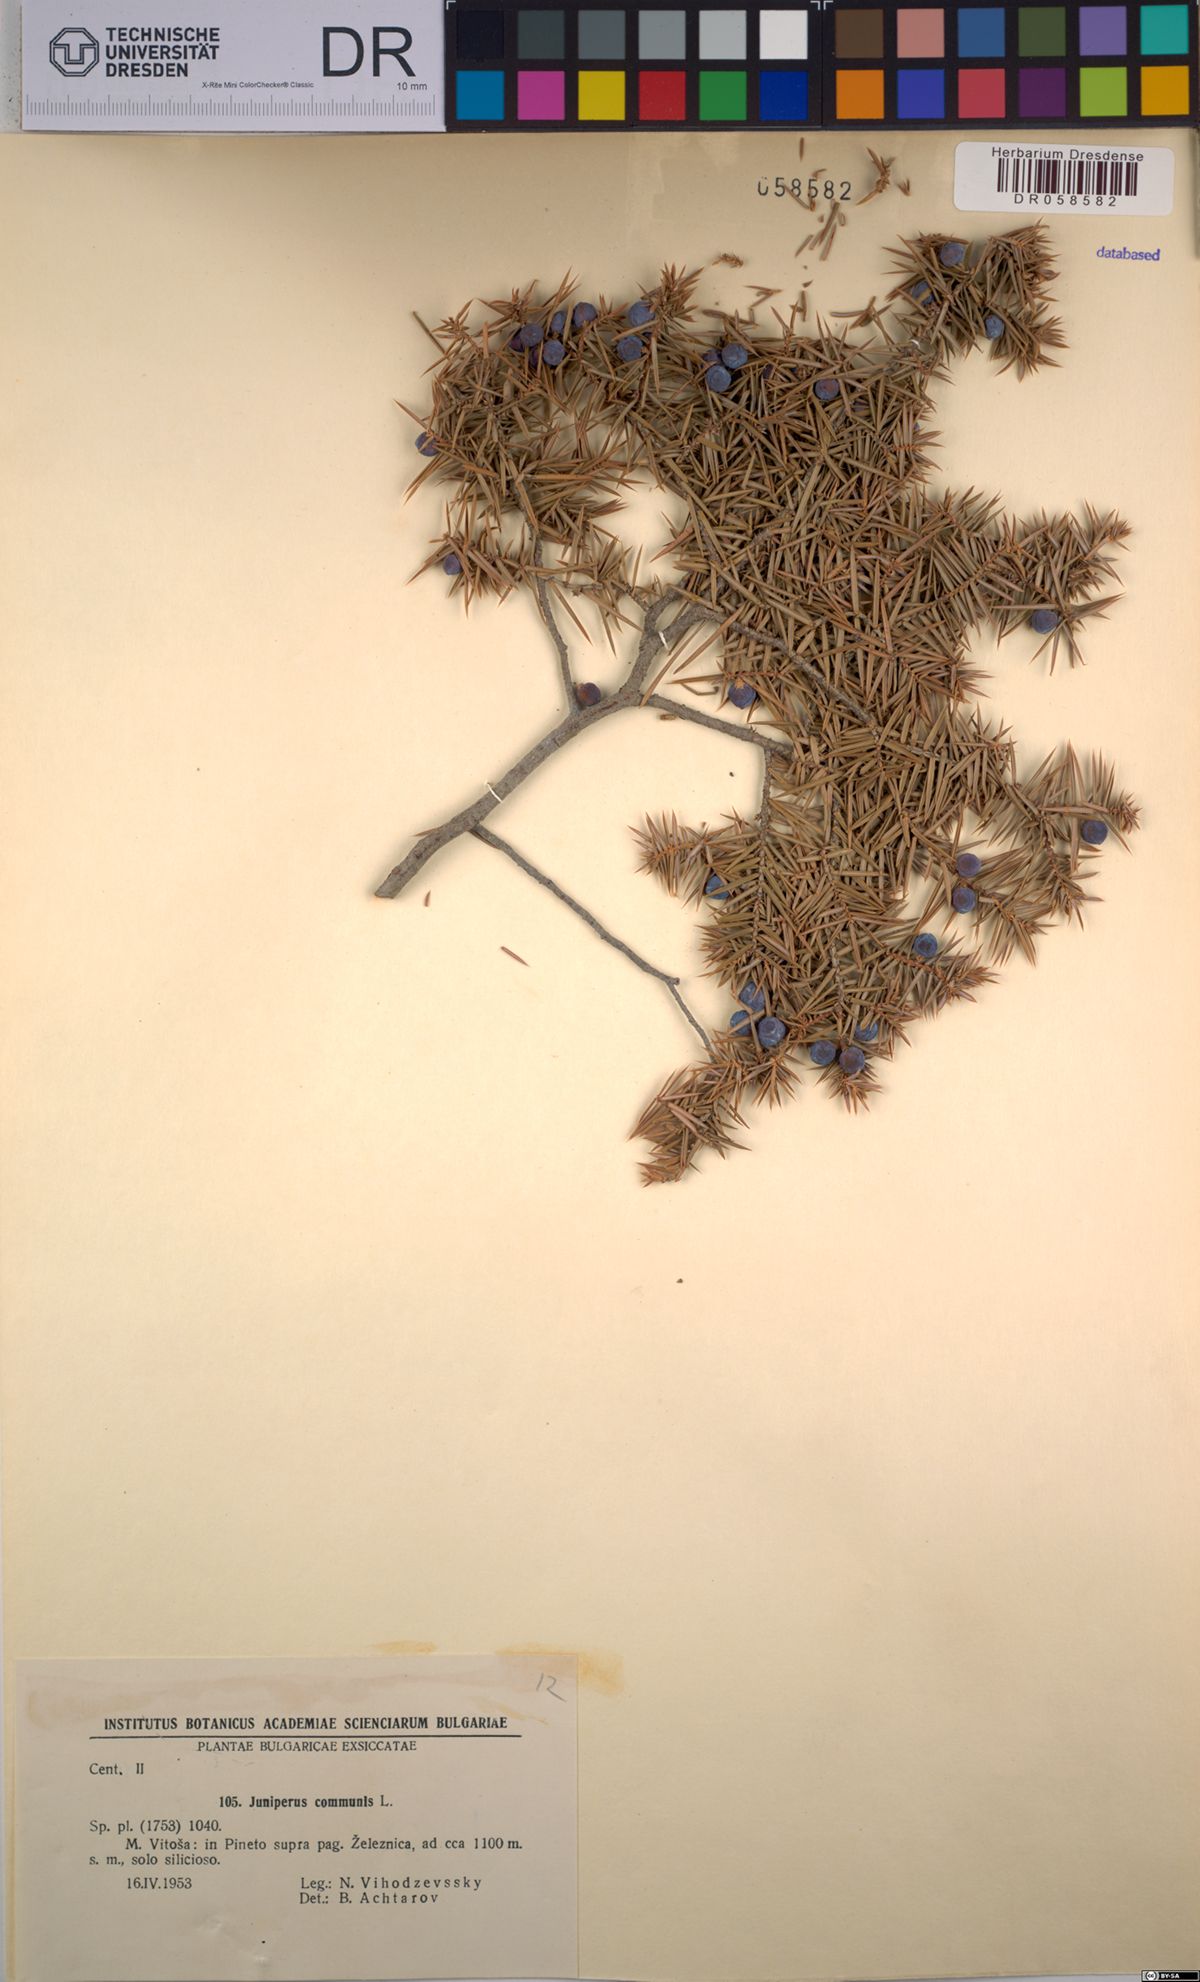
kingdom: Plantae
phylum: Tracheophyta
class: Pinopsida
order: Pinales
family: Cupressaceae
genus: Juniperus
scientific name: Juniperus communis
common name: Common juniper
